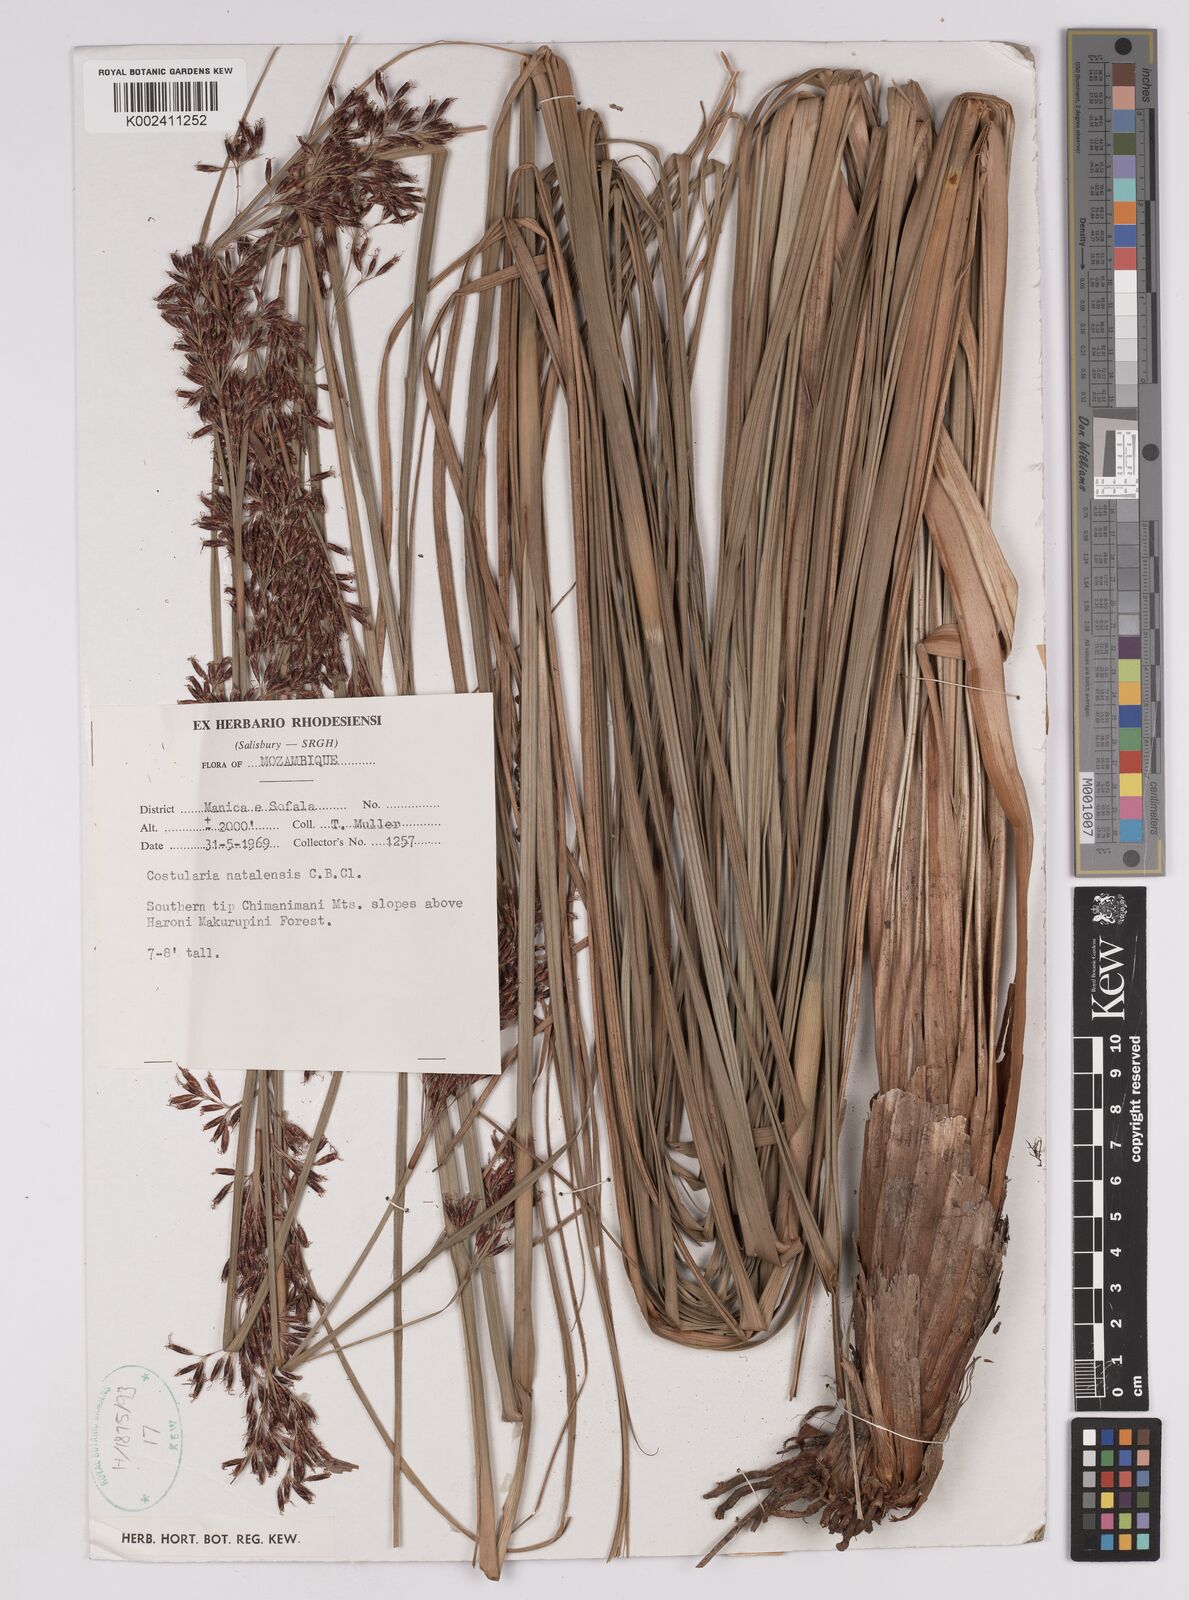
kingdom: Plantae
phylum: Tracheophyta
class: Liliopsida
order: Poales
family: Cyperaceae
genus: Costularia
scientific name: Costularia natalensis
